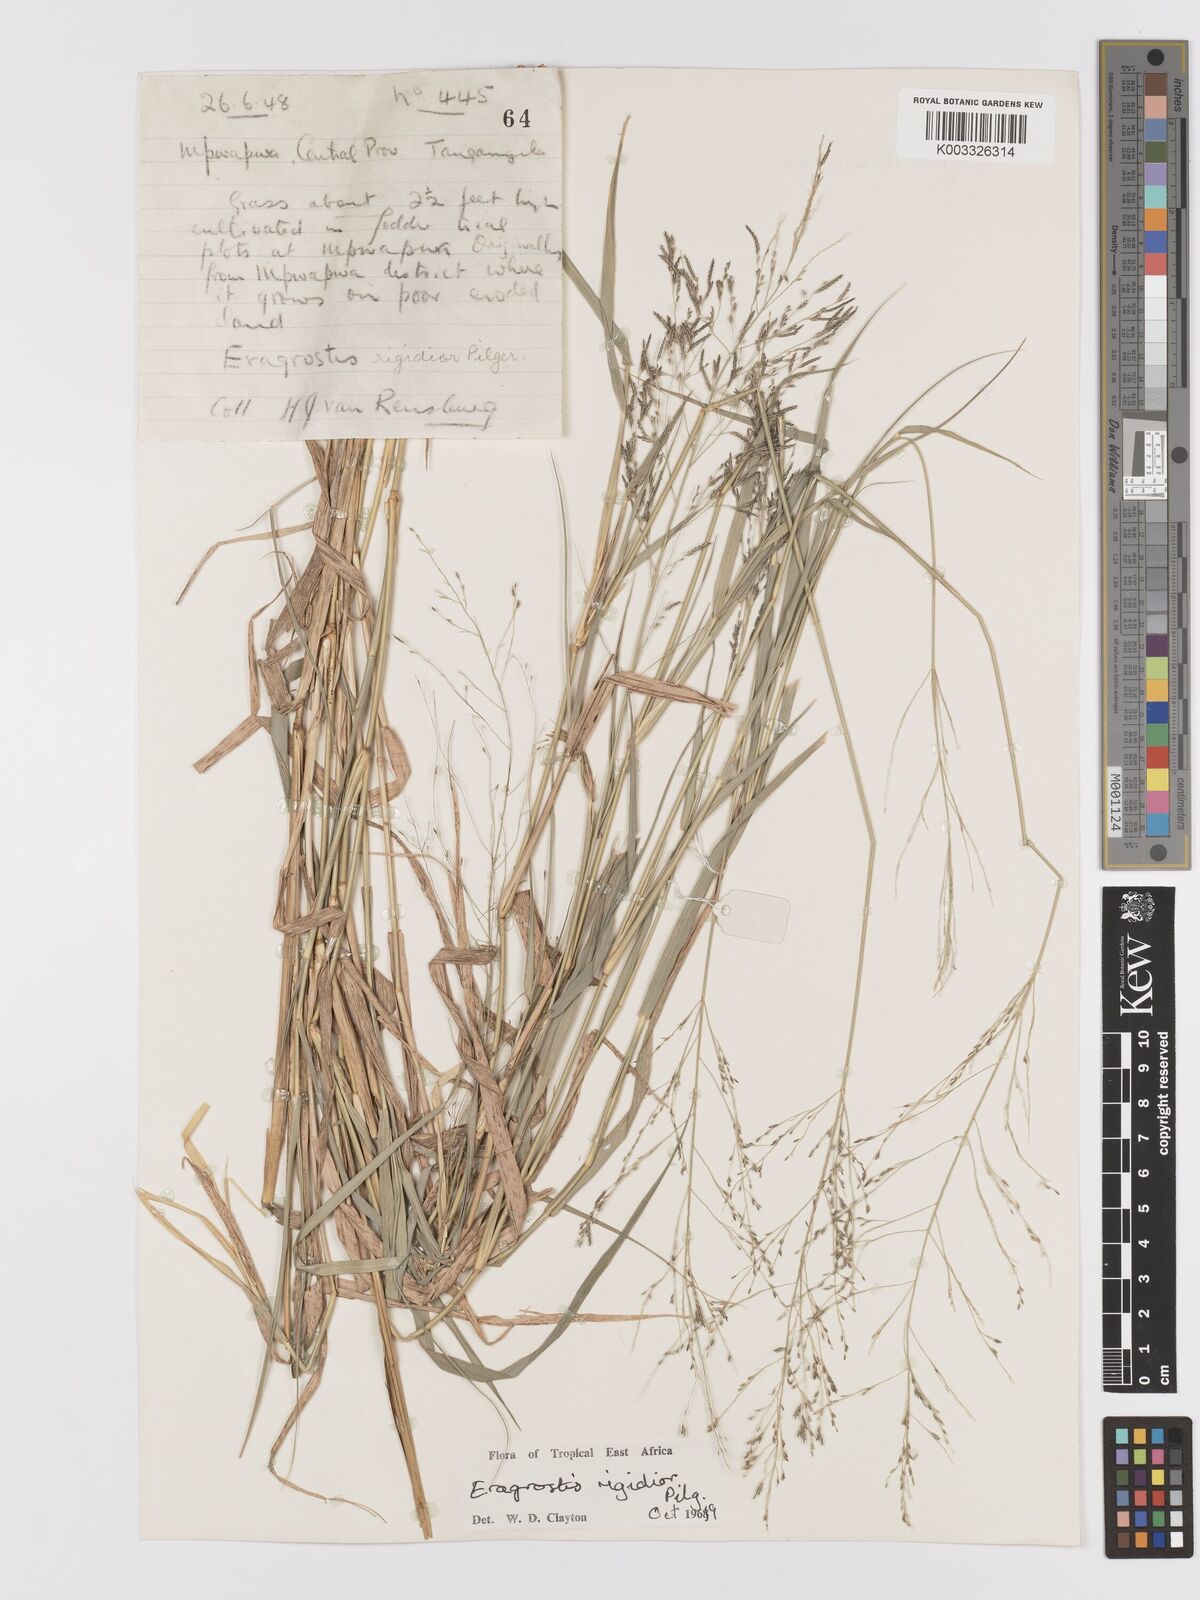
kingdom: Plantae
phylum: Tracheophyta
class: Liliopsida
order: Poales
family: Poaceae
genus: Eragrostis
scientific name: Eragrostis cylindriflora
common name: Cylinderflower lovegrass
